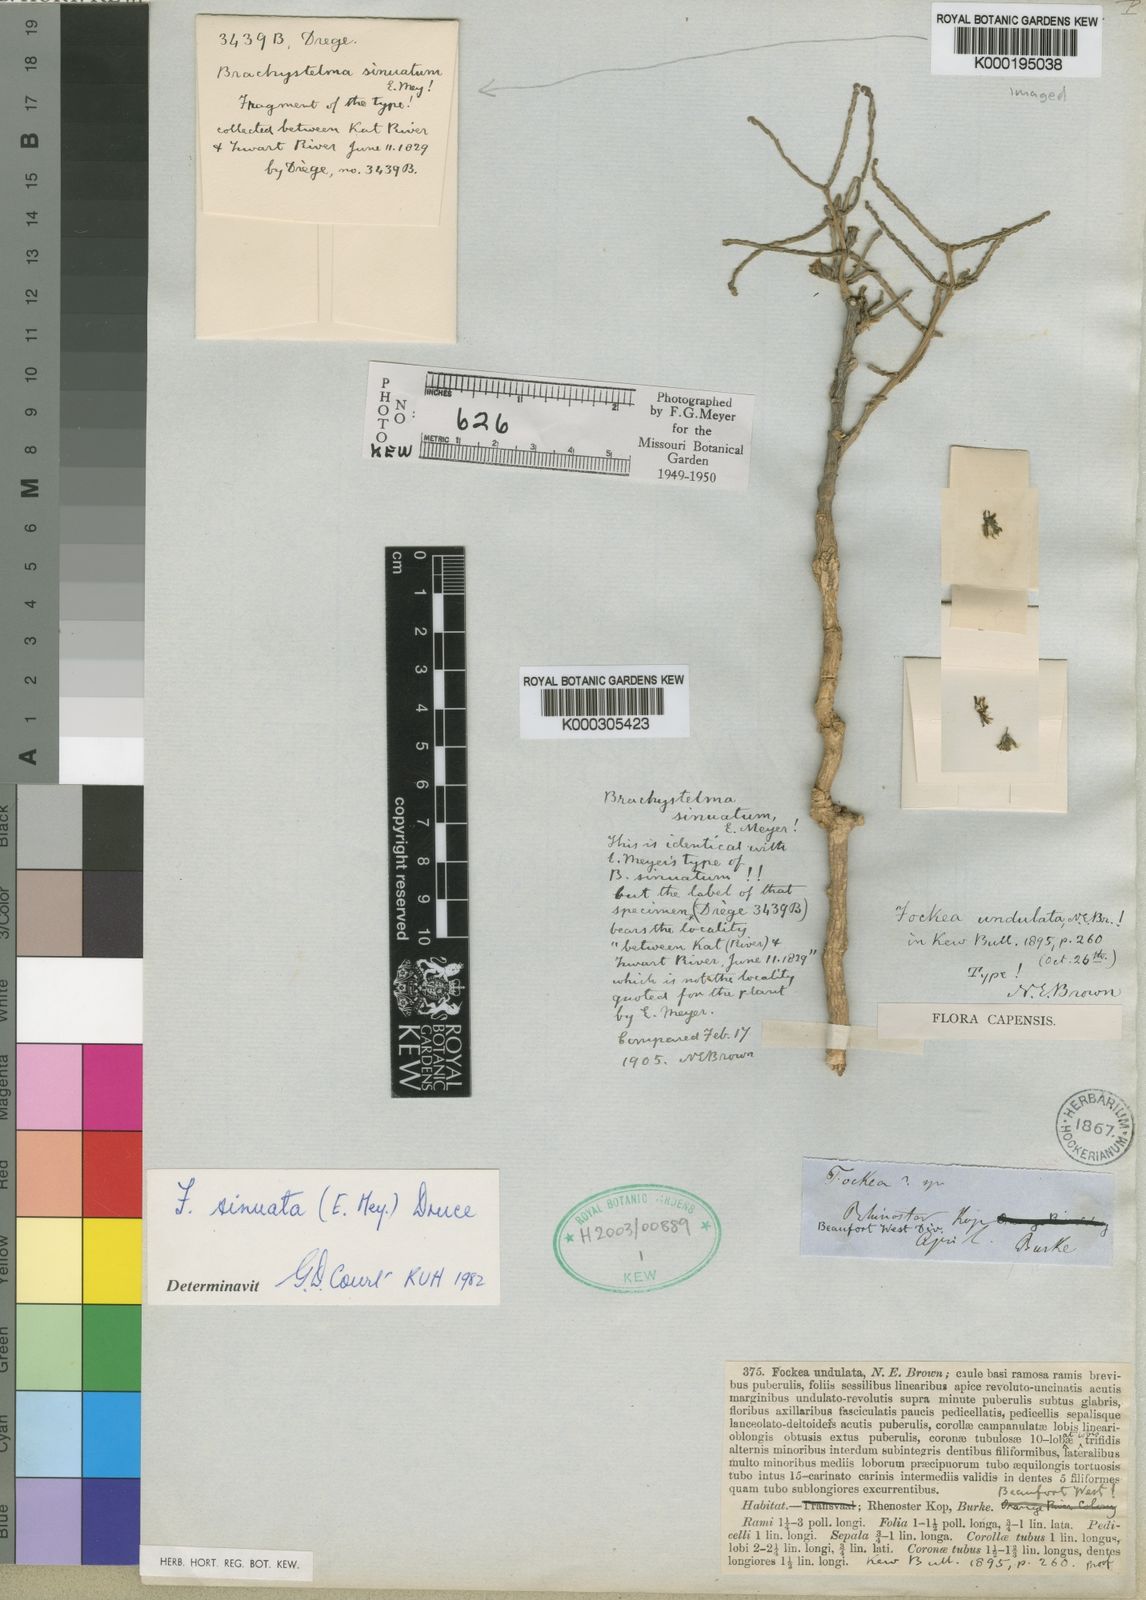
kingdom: Plantae
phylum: Tracheophyta
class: Magnoliopsida
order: Gentianales
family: Apocynaceae
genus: Fockea
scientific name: Fockea sinuata
